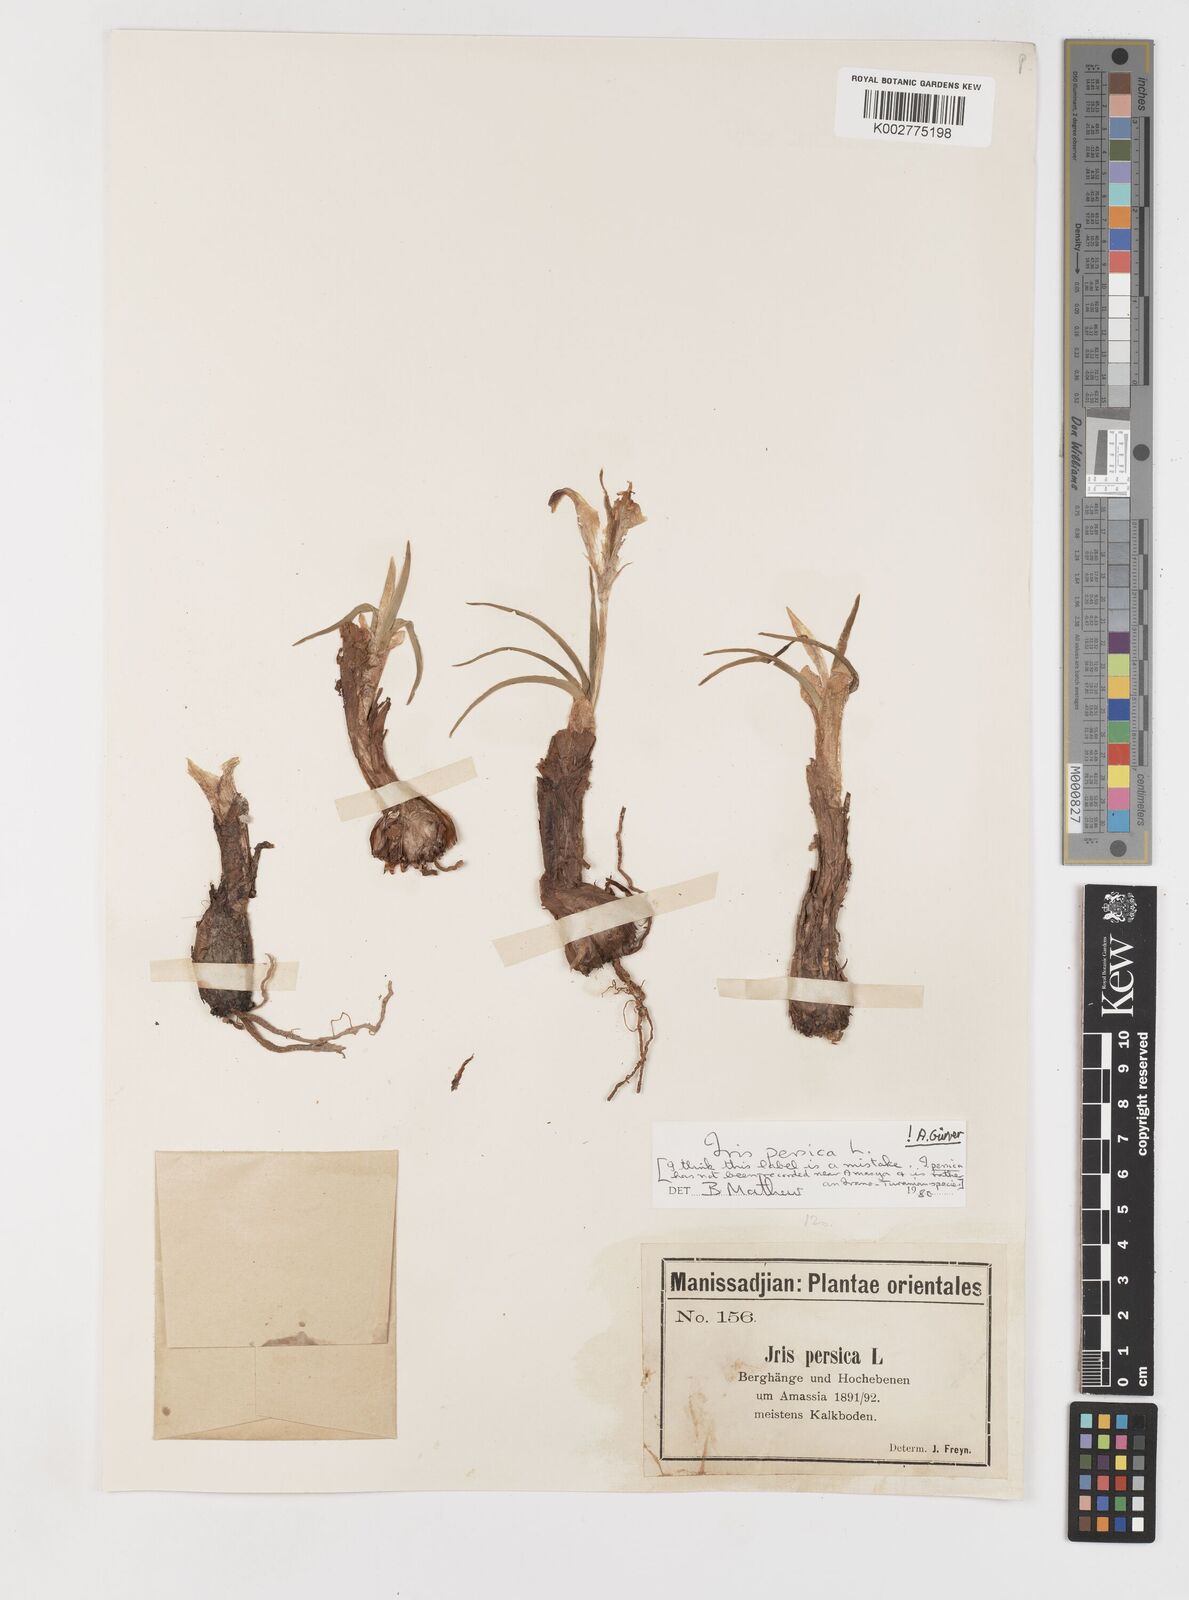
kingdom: Plantae
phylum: Tracheophyta
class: Liliopsida
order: Asparagales
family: Iridaceae
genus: Iris
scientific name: Iris persica
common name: Persian iris
